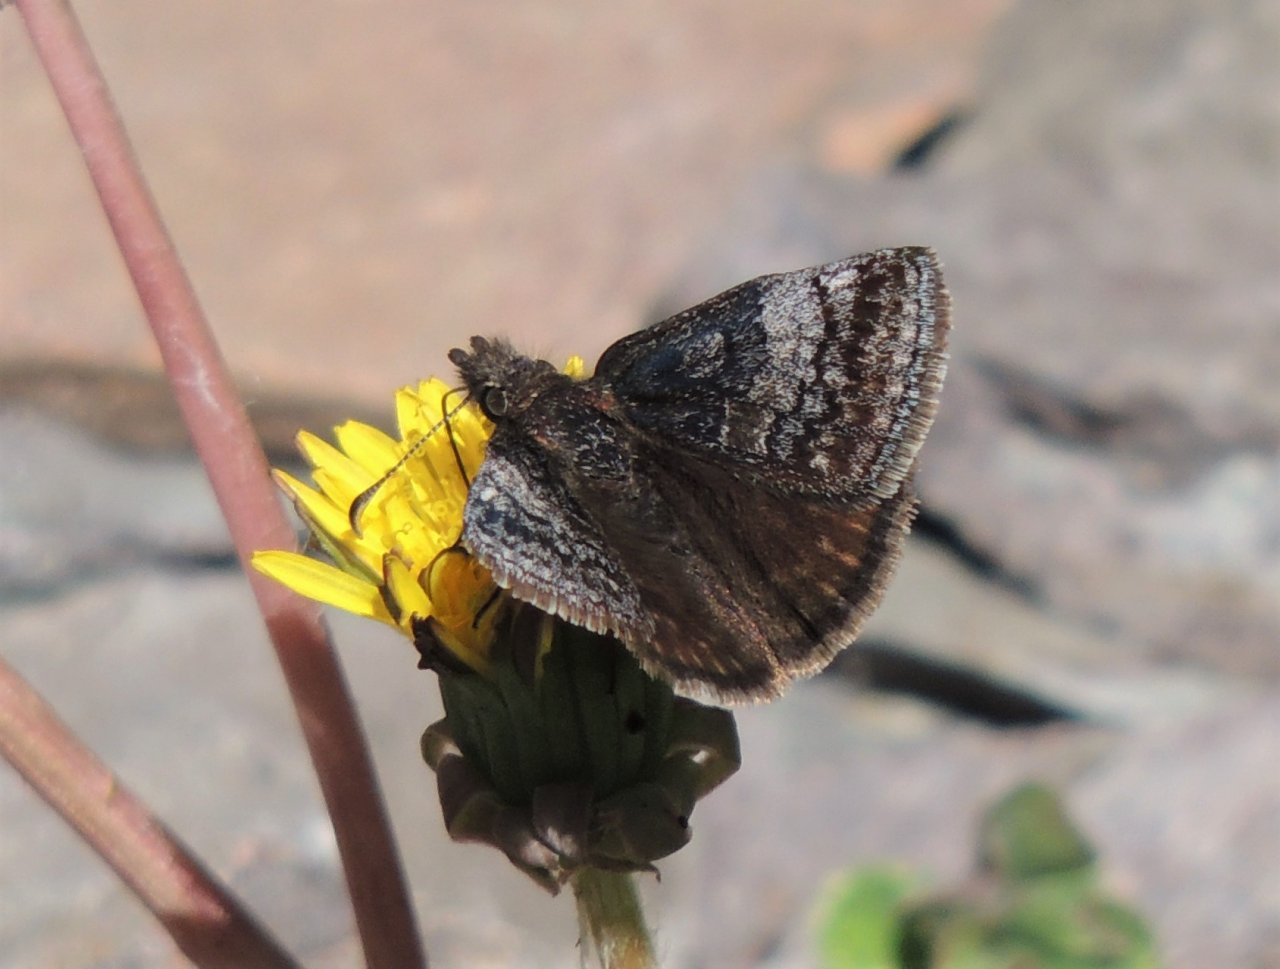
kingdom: Animalia
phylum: Arthropoda
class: Insecta
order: Lepidoptera
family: Hesperiidae
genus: Erynnis
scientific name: Erynnis icelus
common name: Dreamy Duskywing
